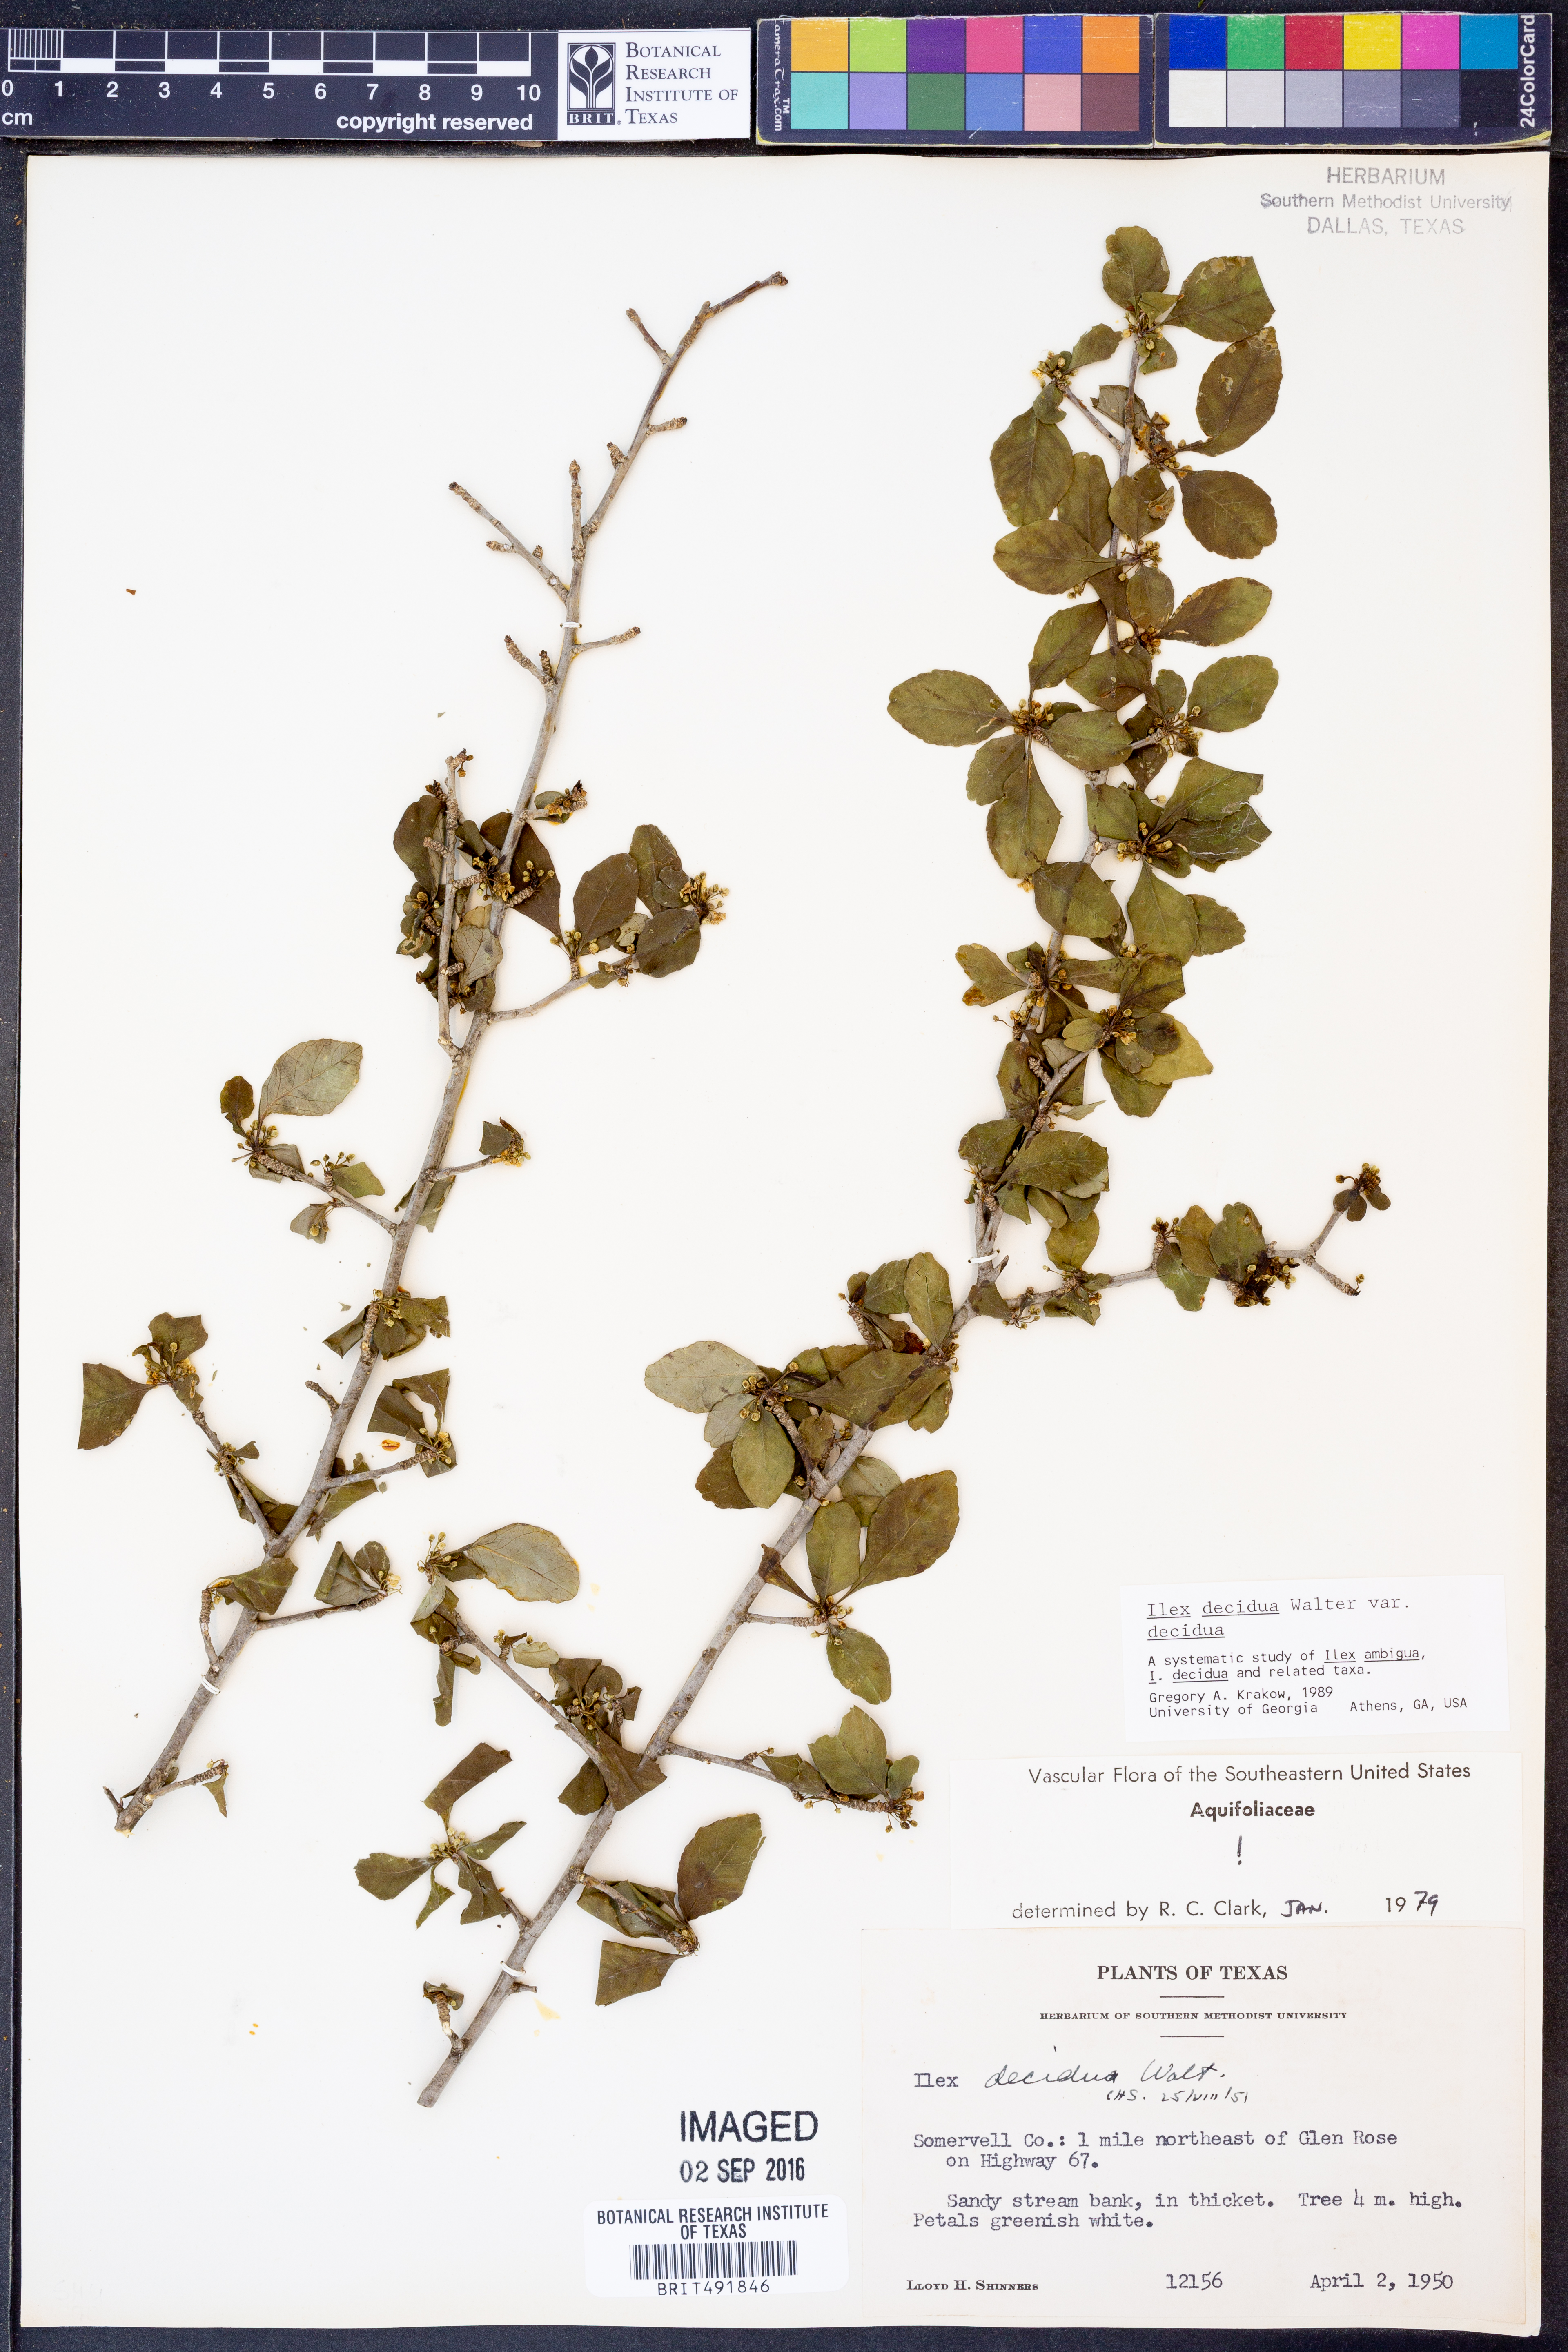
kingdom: Plantae
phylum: Tracheophyta
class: Magnoliopsida
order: Aquifoliales
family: Aquifoliaceae
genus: Ilex
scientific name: Ilex decidua
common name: Possum-haw
